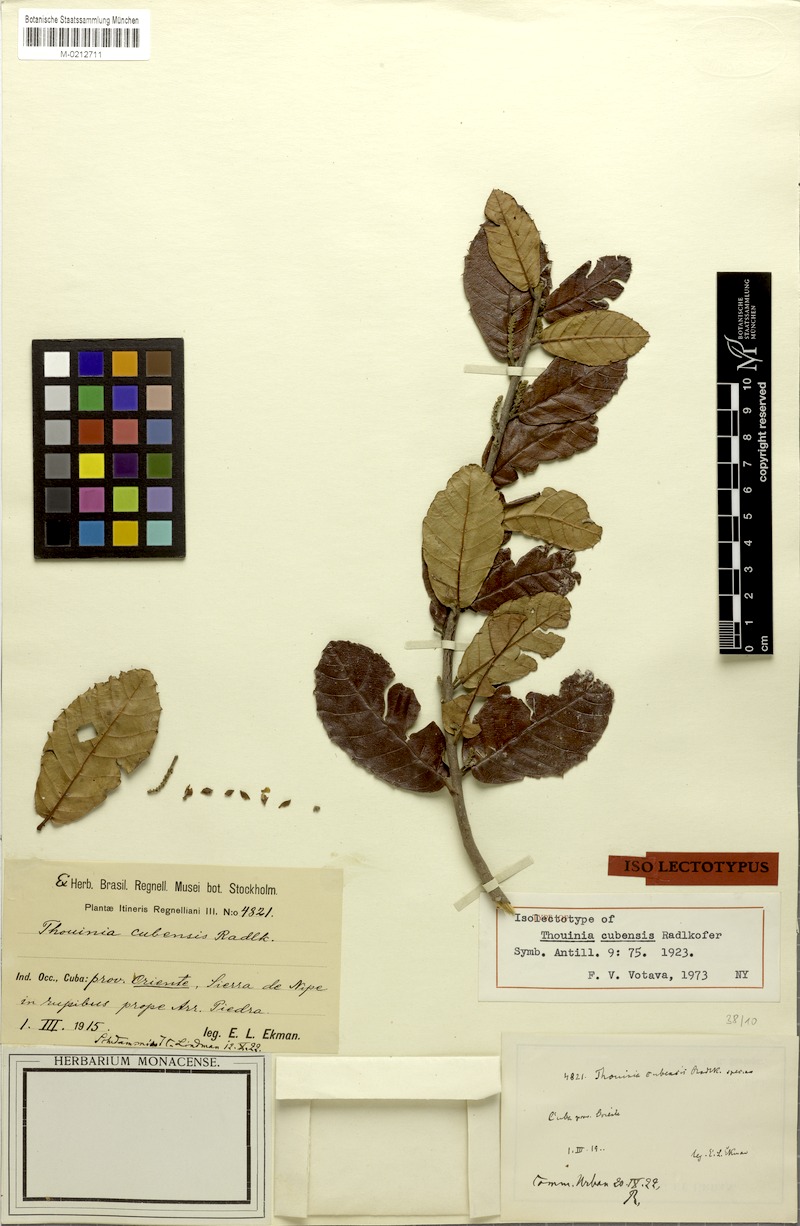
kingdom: Plantae
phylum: Tracheophyta
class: Magnoliopsida
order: Sapindales
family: Sapindaceae
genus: Thouinia
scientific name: Thouinia cubensis
